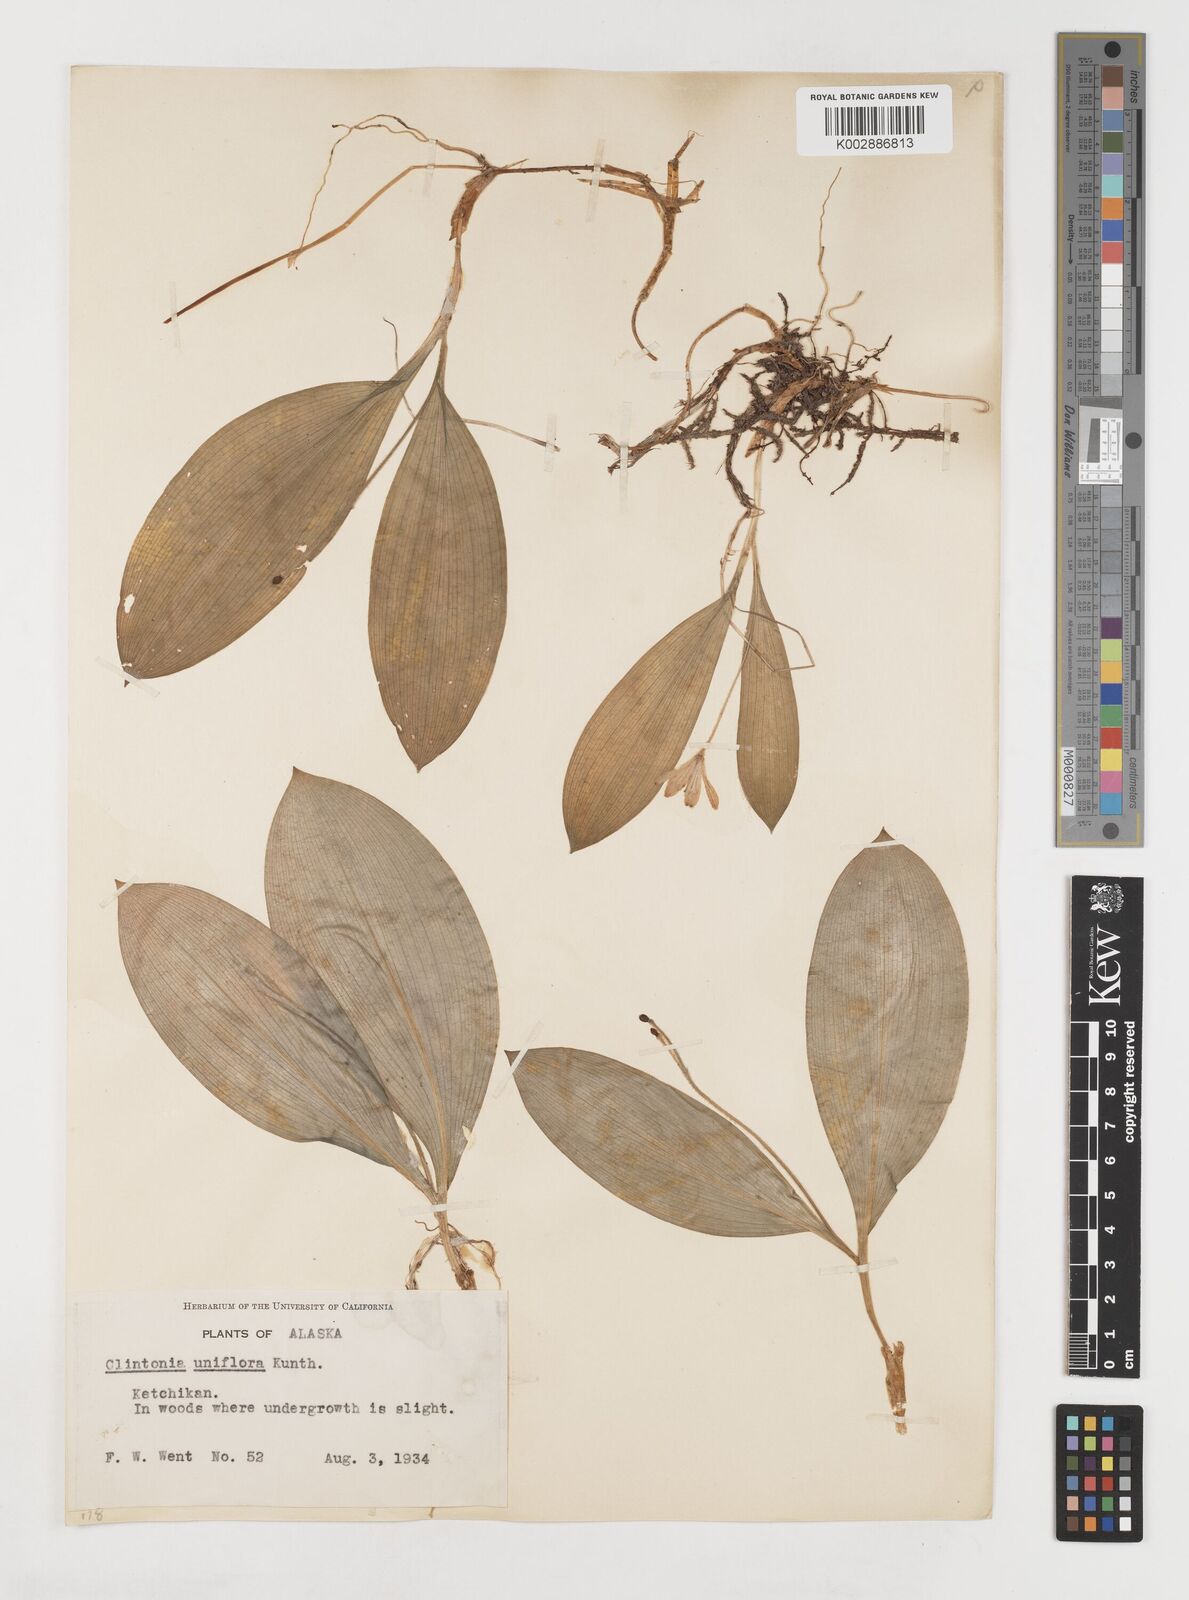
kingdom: Plantae
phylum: Tracheophyta
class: Liliopsida
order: Liliales
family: Liliaceae
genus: Clintonia
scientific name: Clintonia uniflora
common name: Queen's cup
